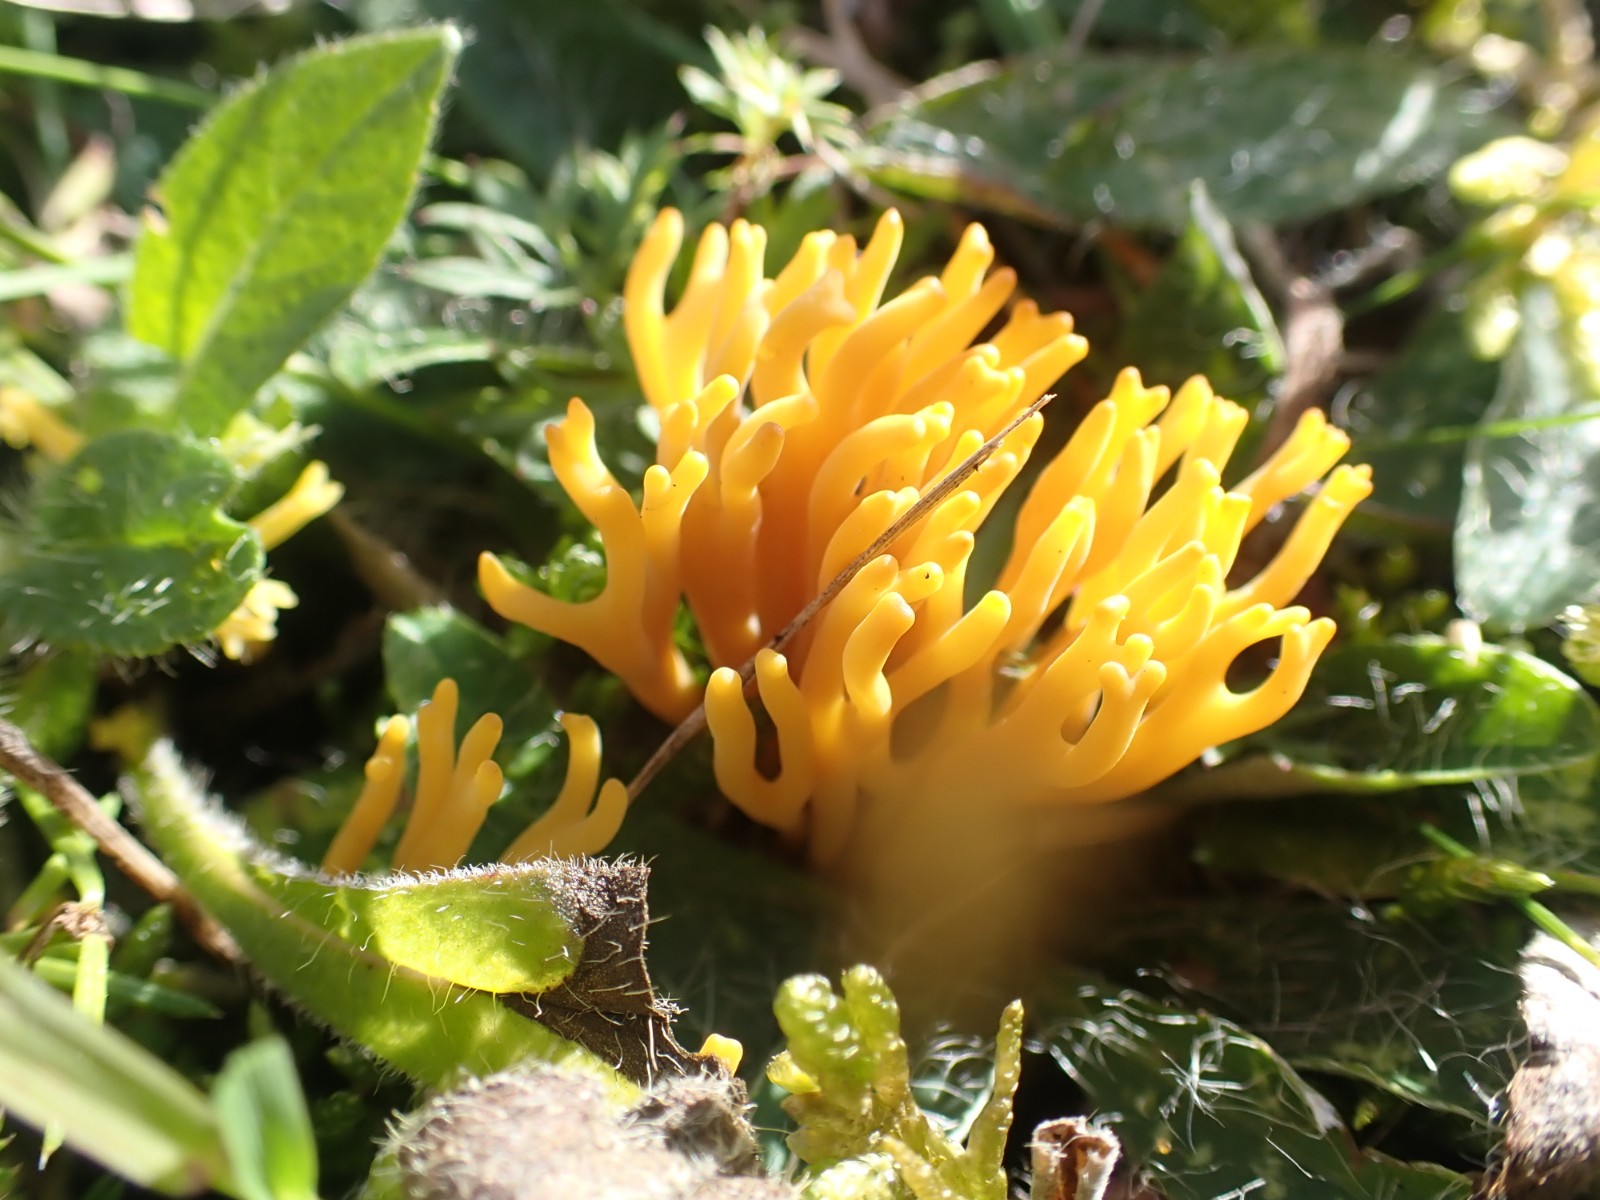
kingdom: Fungi
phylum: Basidiomycota
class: Agaricomycetes
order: Agaricales
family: Clavariaceae
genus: Clavulinopsis
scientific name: Clavulinopsis corniculata
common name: eng-køllesvamp
